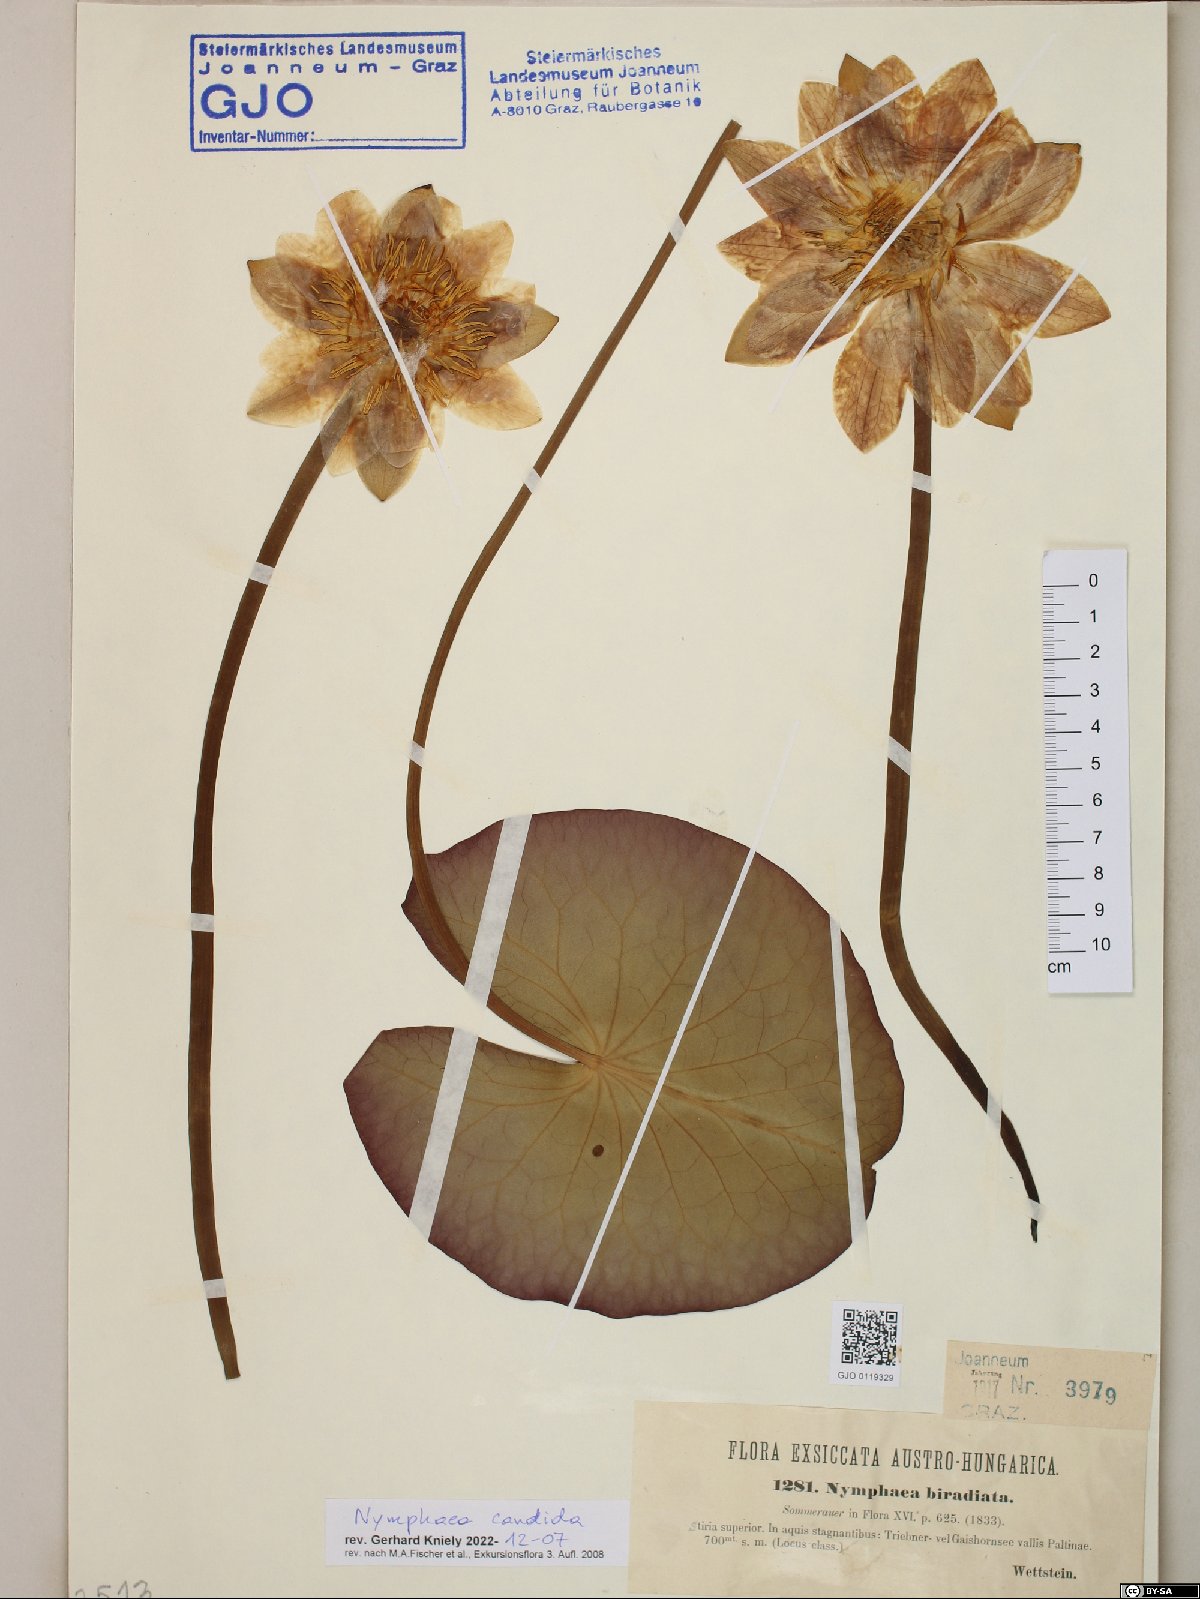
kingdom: Plantae
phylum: Tracheophyta
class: Magnoliopsida
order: Nymphaeales
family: Nymphaeaceae
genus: Nymphaea
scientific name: Nymphaea candida
